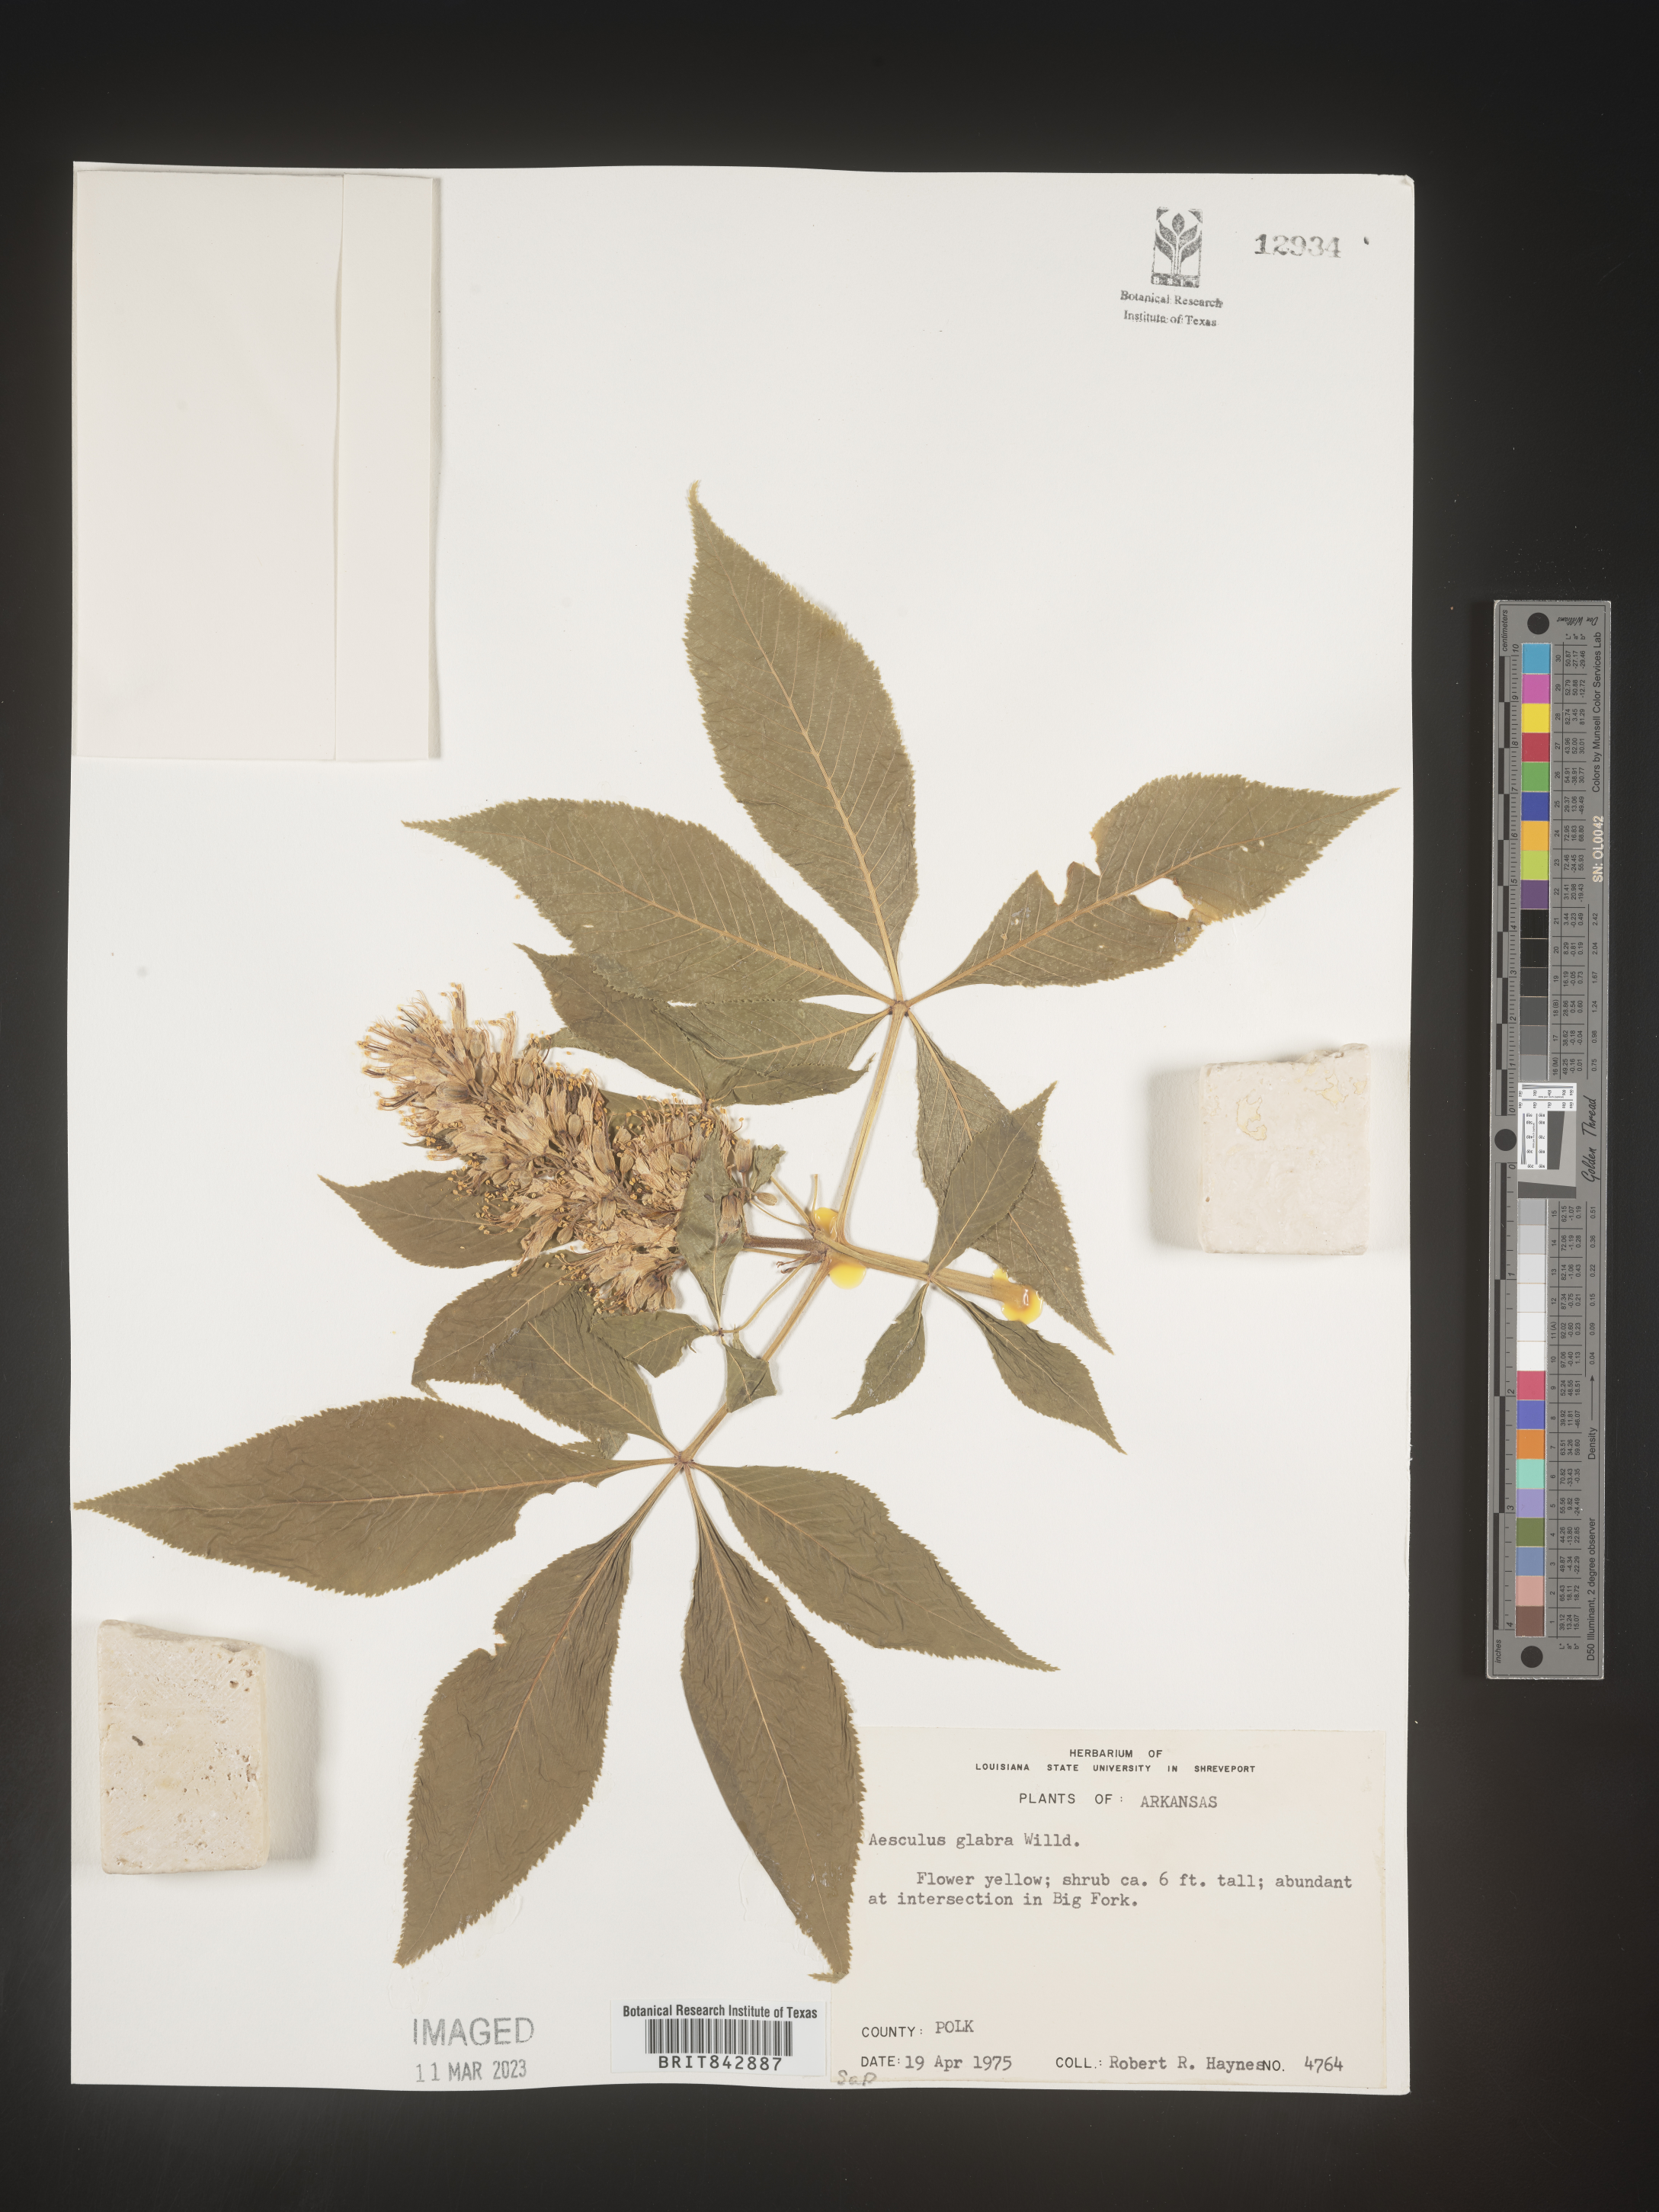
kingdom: Plantae
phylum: Tracheophyta
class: Magnoliopsida
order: Sapindales
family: Sapindaceae
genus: Aesculus
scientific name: Aesculus glabra
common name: Ohio buckeye
